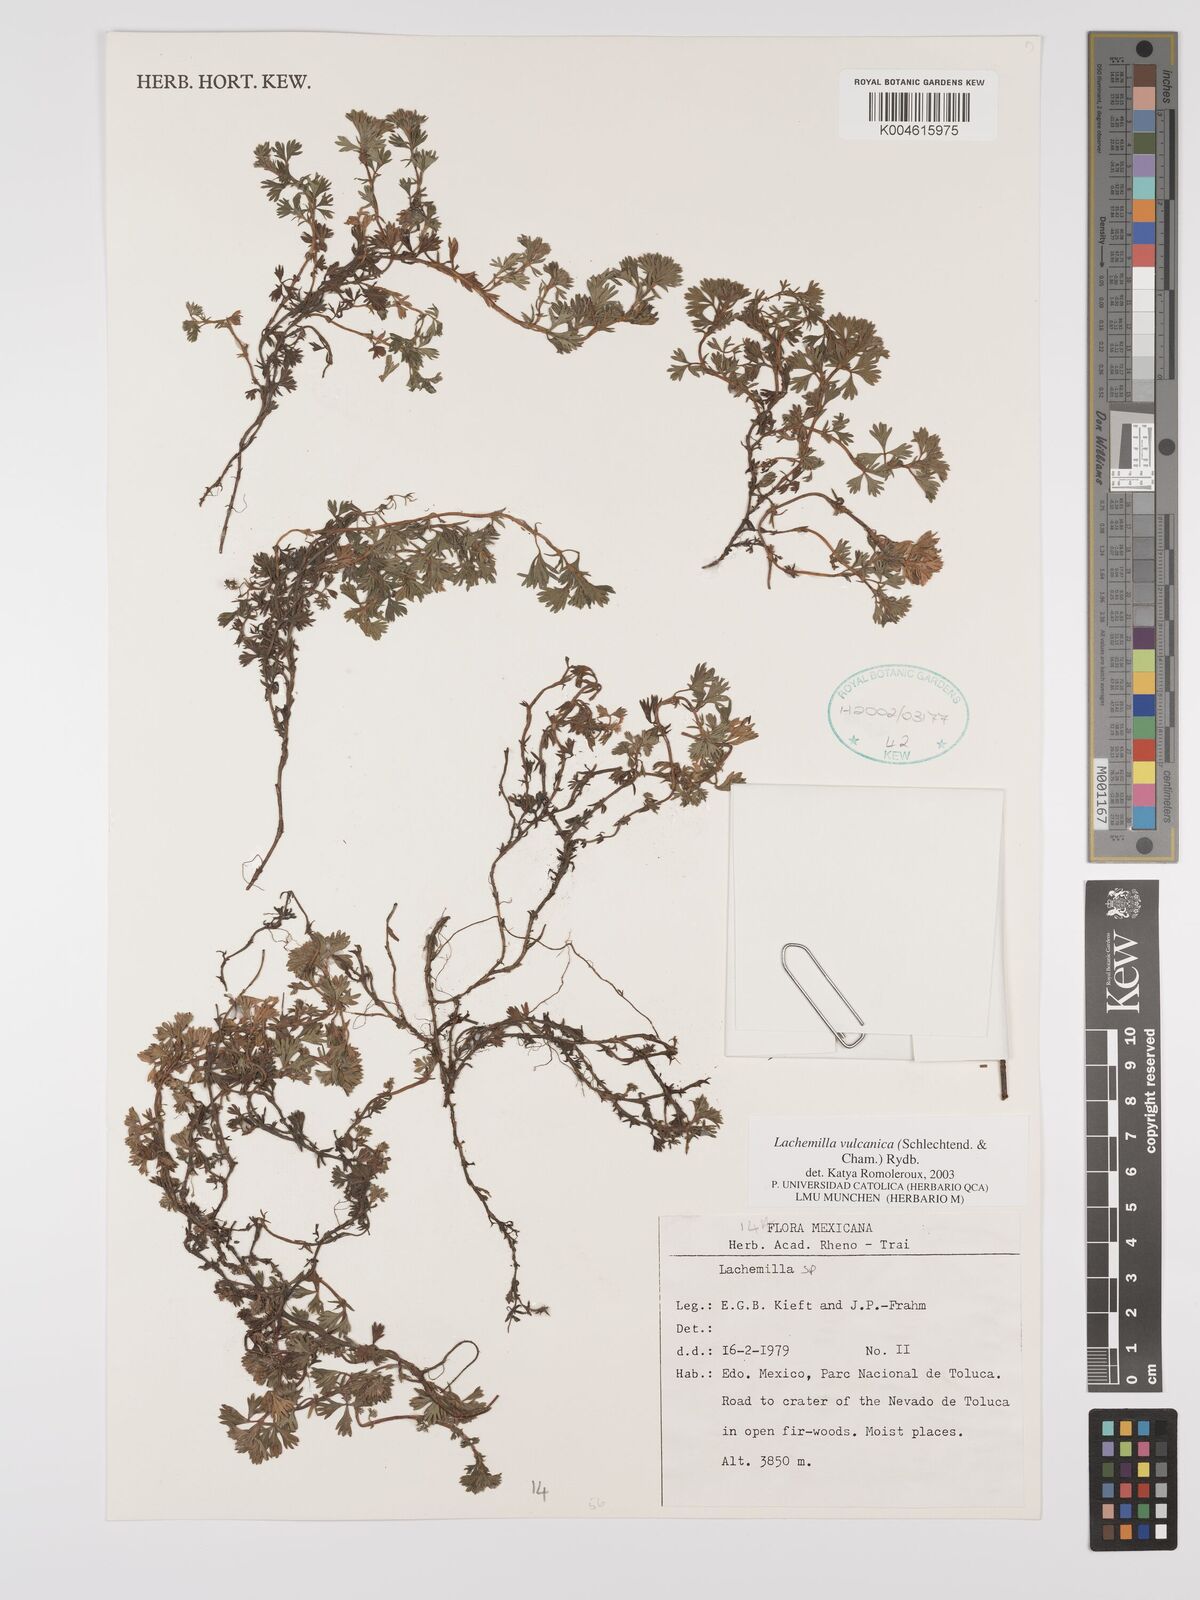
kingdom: Plantae
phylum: Tracheophyta
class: Magnoliopsida
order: Rosales
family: Rosaceae
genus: Alchemilla
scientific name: Alchemilla
